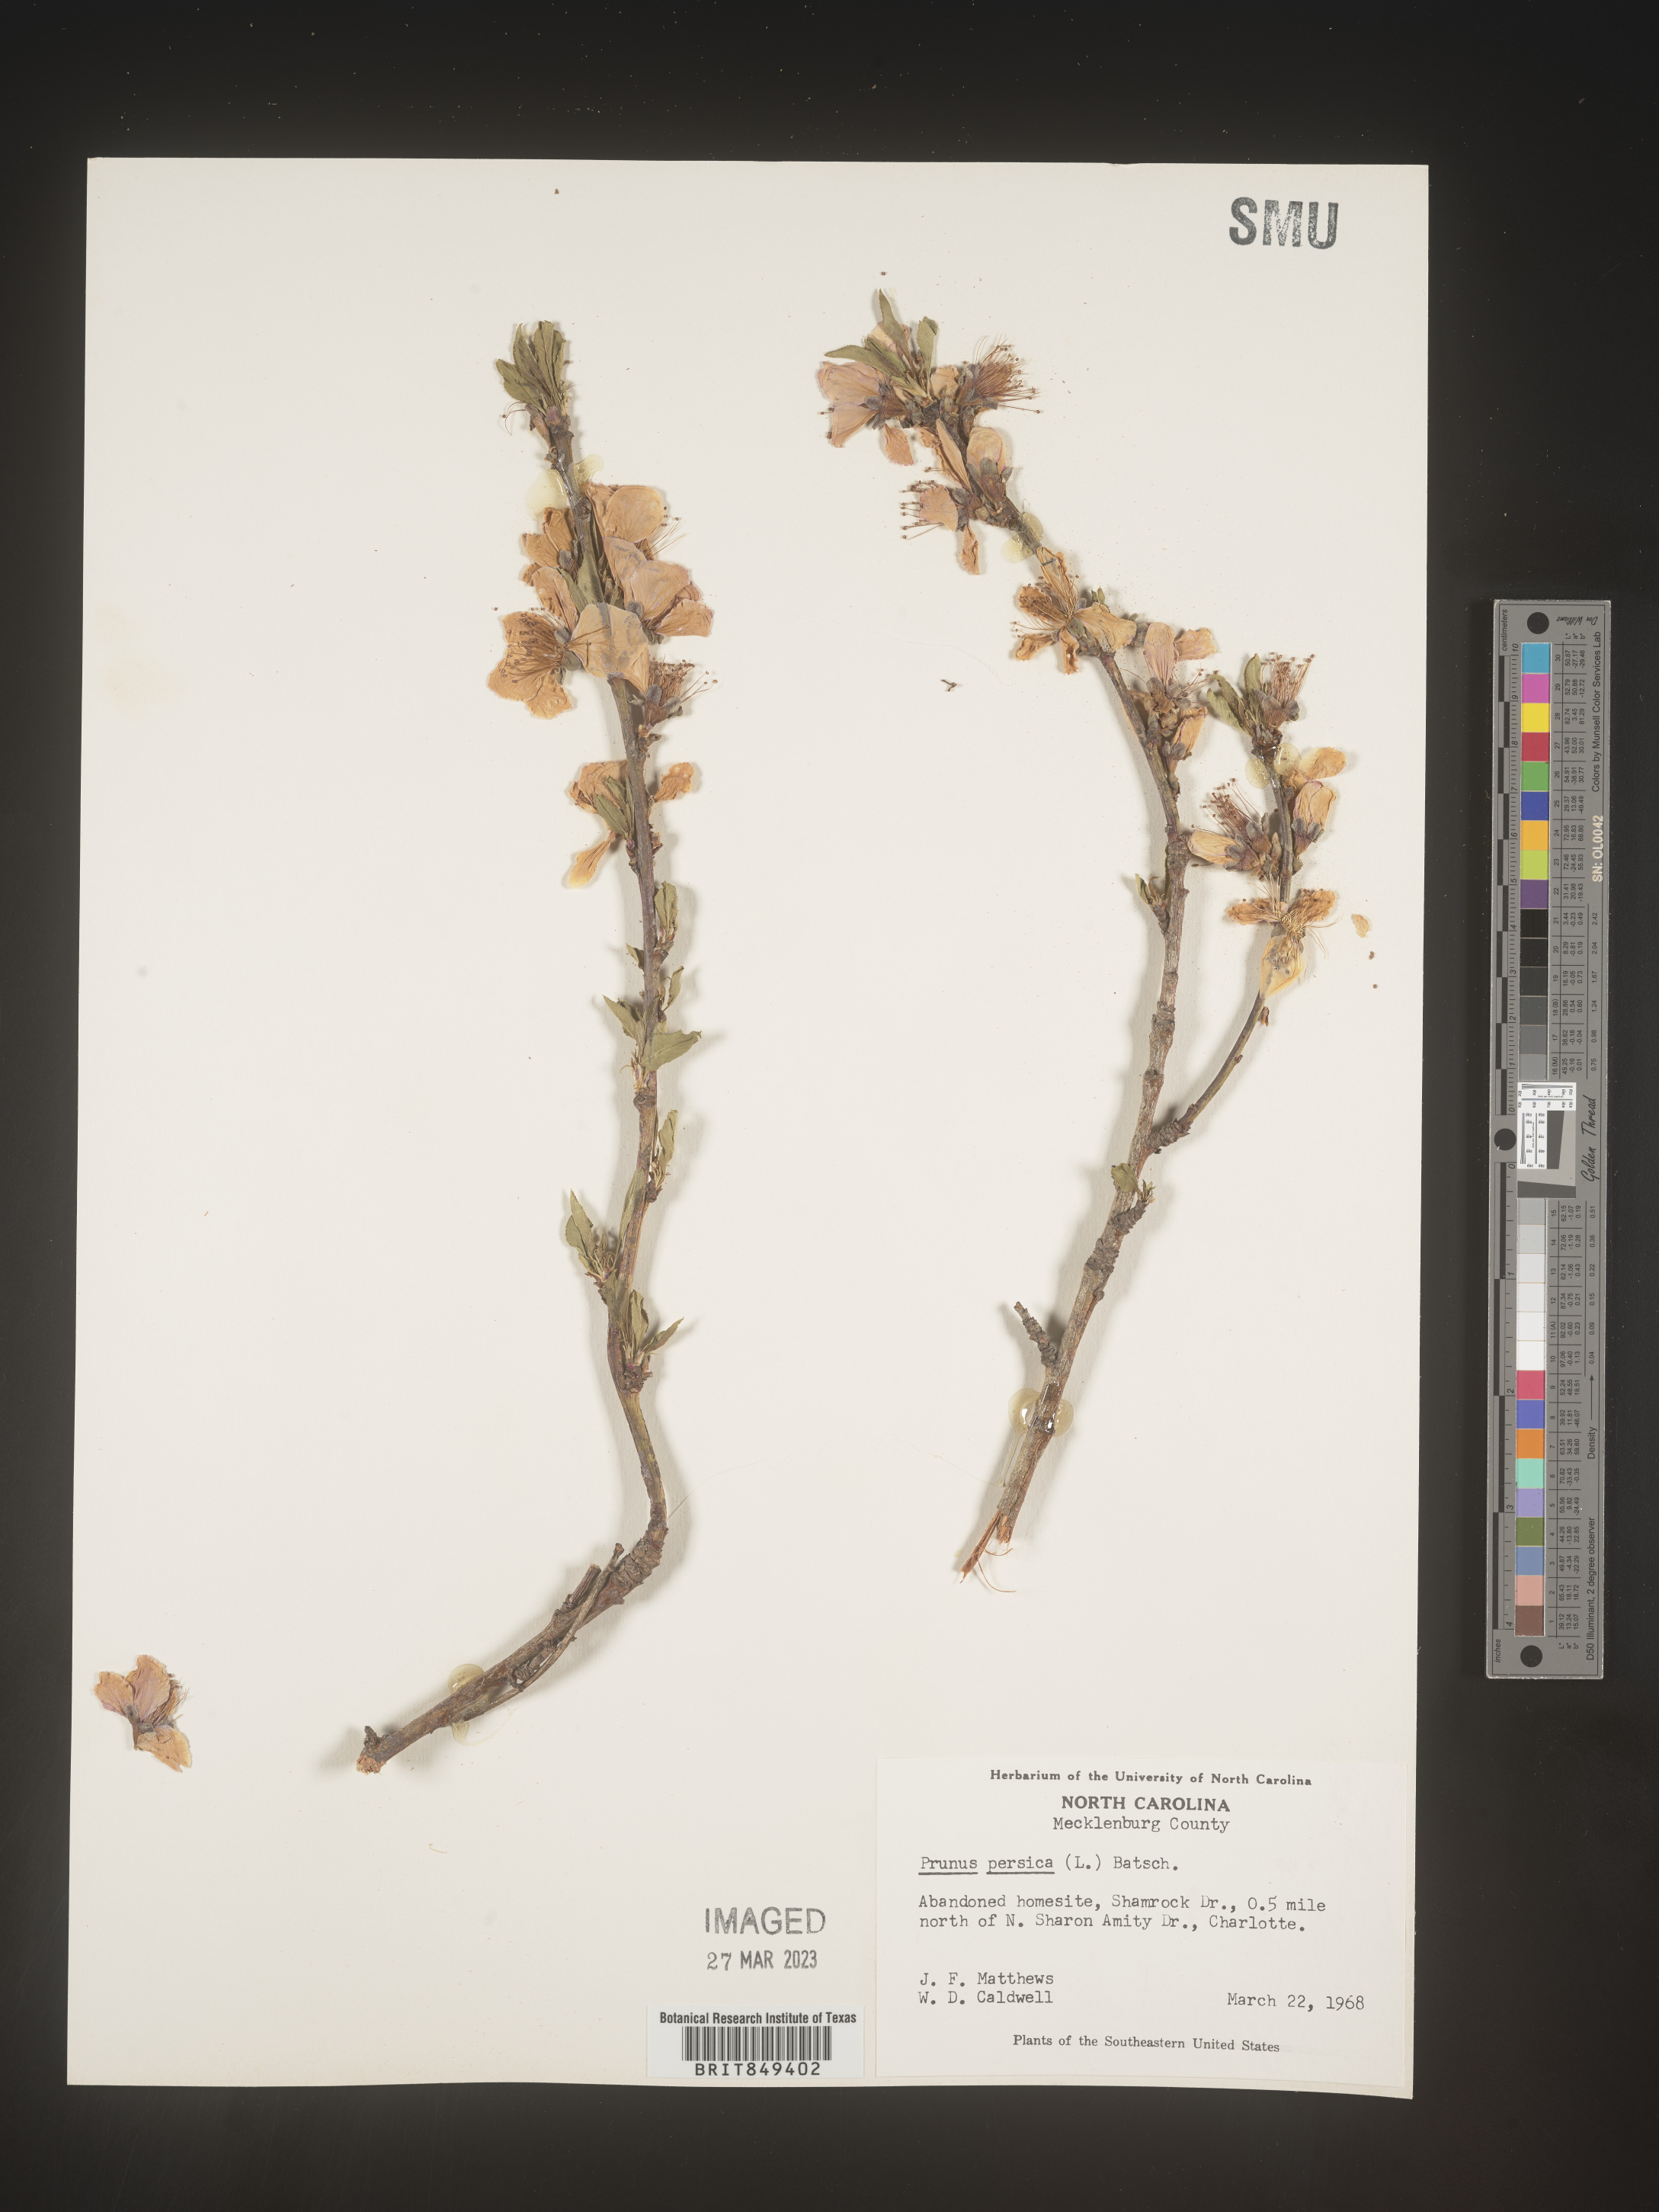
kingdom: Plantae
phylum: Tracheophyta
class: Magnoliopsida
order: Rosales
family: Rosaceae
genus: Prunus
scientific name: Prunus persica
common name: Peach
